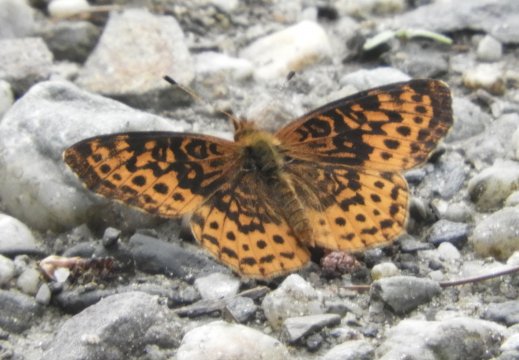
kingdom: Animalia
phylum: Arthropoda
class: Insecta
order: Lepidoptera
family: Nymphalidae
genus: Clossiana
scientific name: Clossiana toddi
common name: Meadow Fritillary
